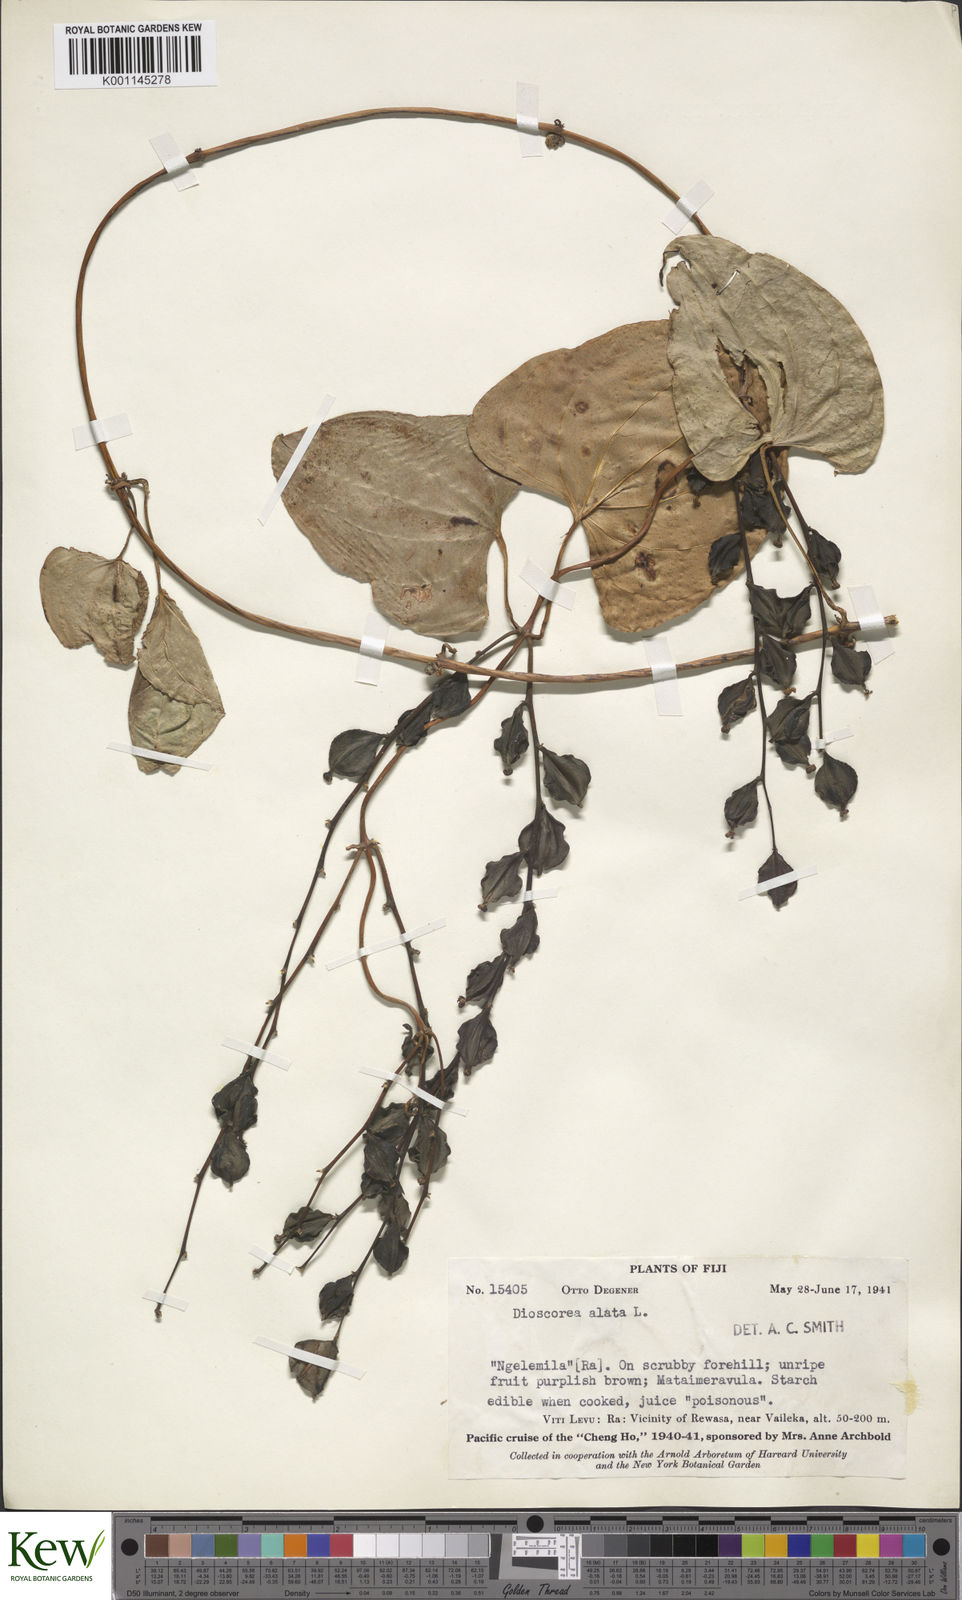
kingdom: Plantae
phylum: Tracheophyta
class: Liliopsida
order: Dioscoreales
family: Dioscoreaceae
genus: Dioscorea
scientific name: Dioscorea alata
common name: Water yam
